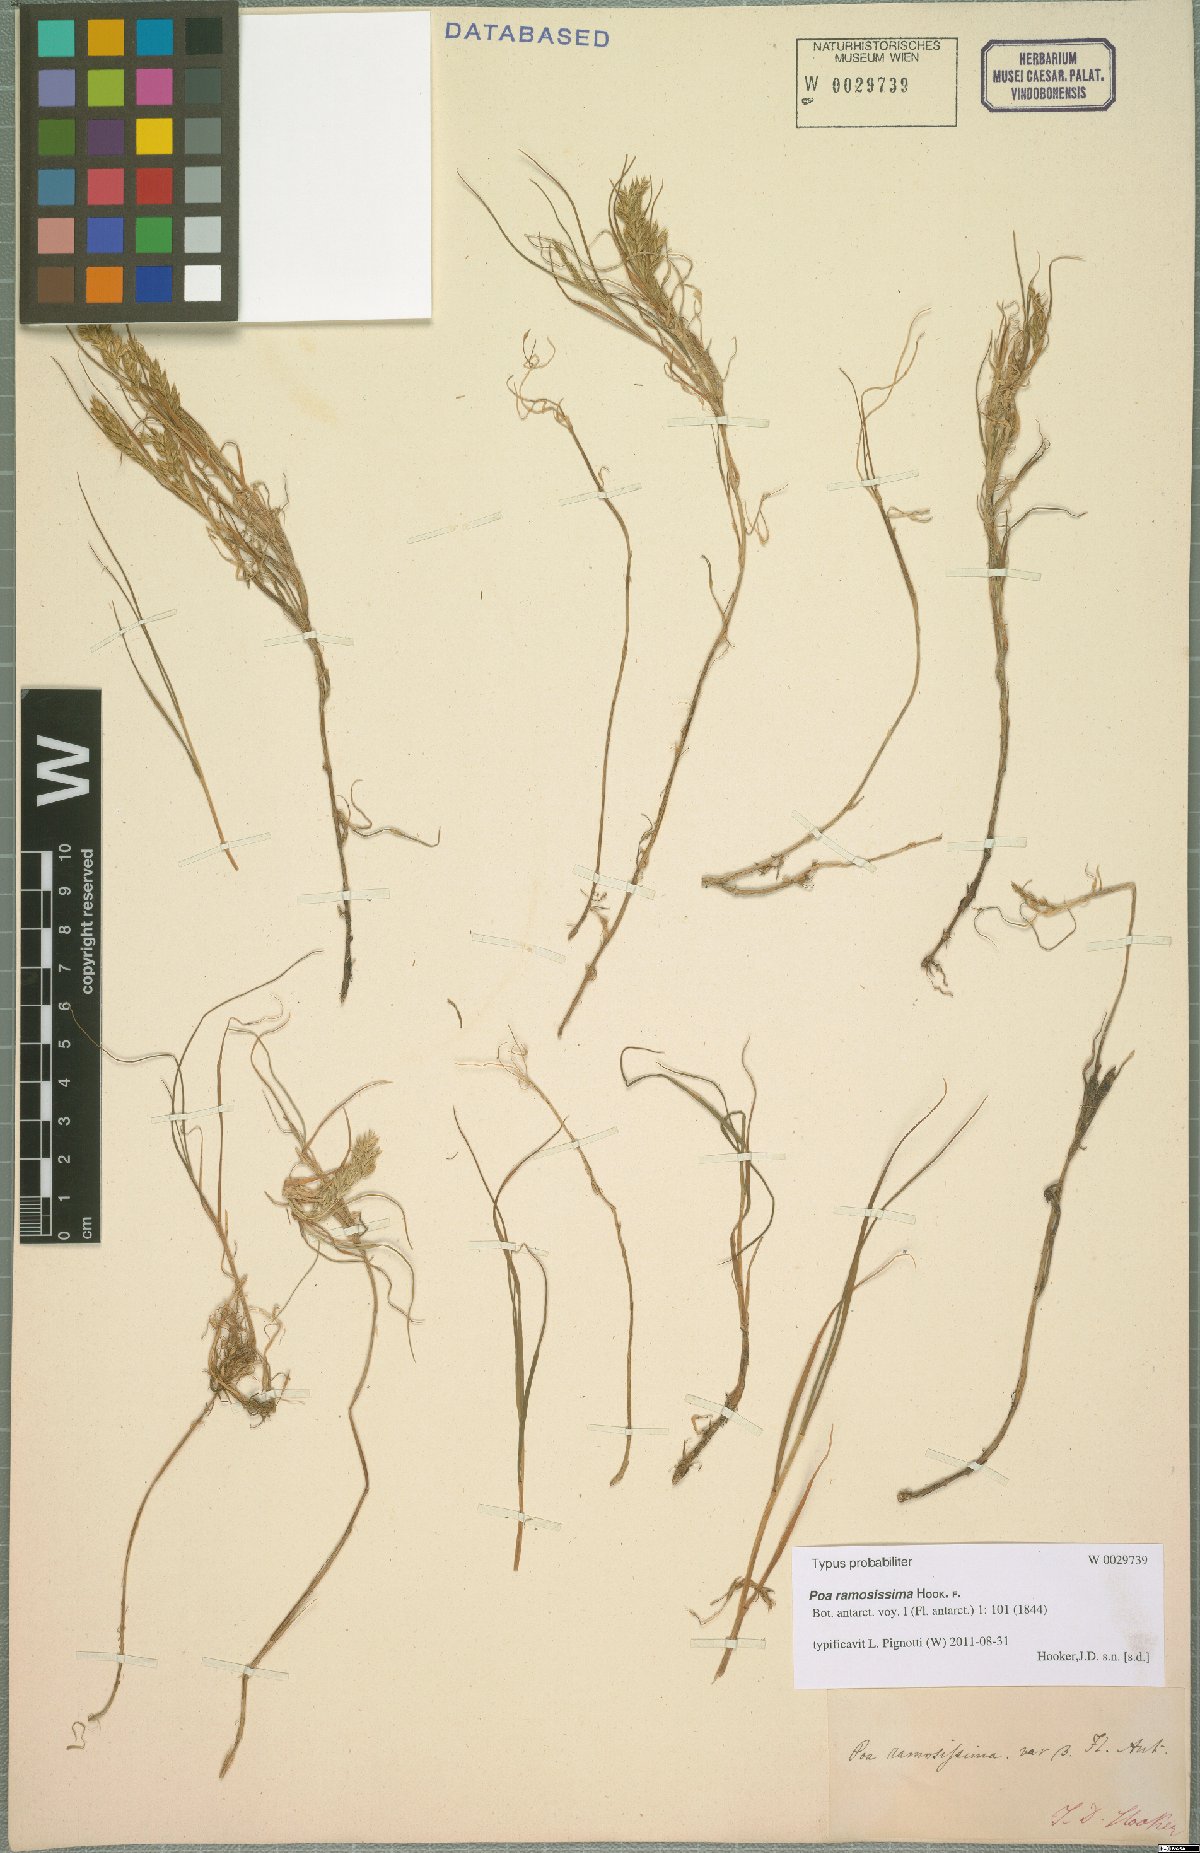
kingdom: Plantae
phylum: Tracheophyta
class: Liliopsida
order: Poales
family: Poaceae
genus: Poa
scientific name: Poa ramosissima
